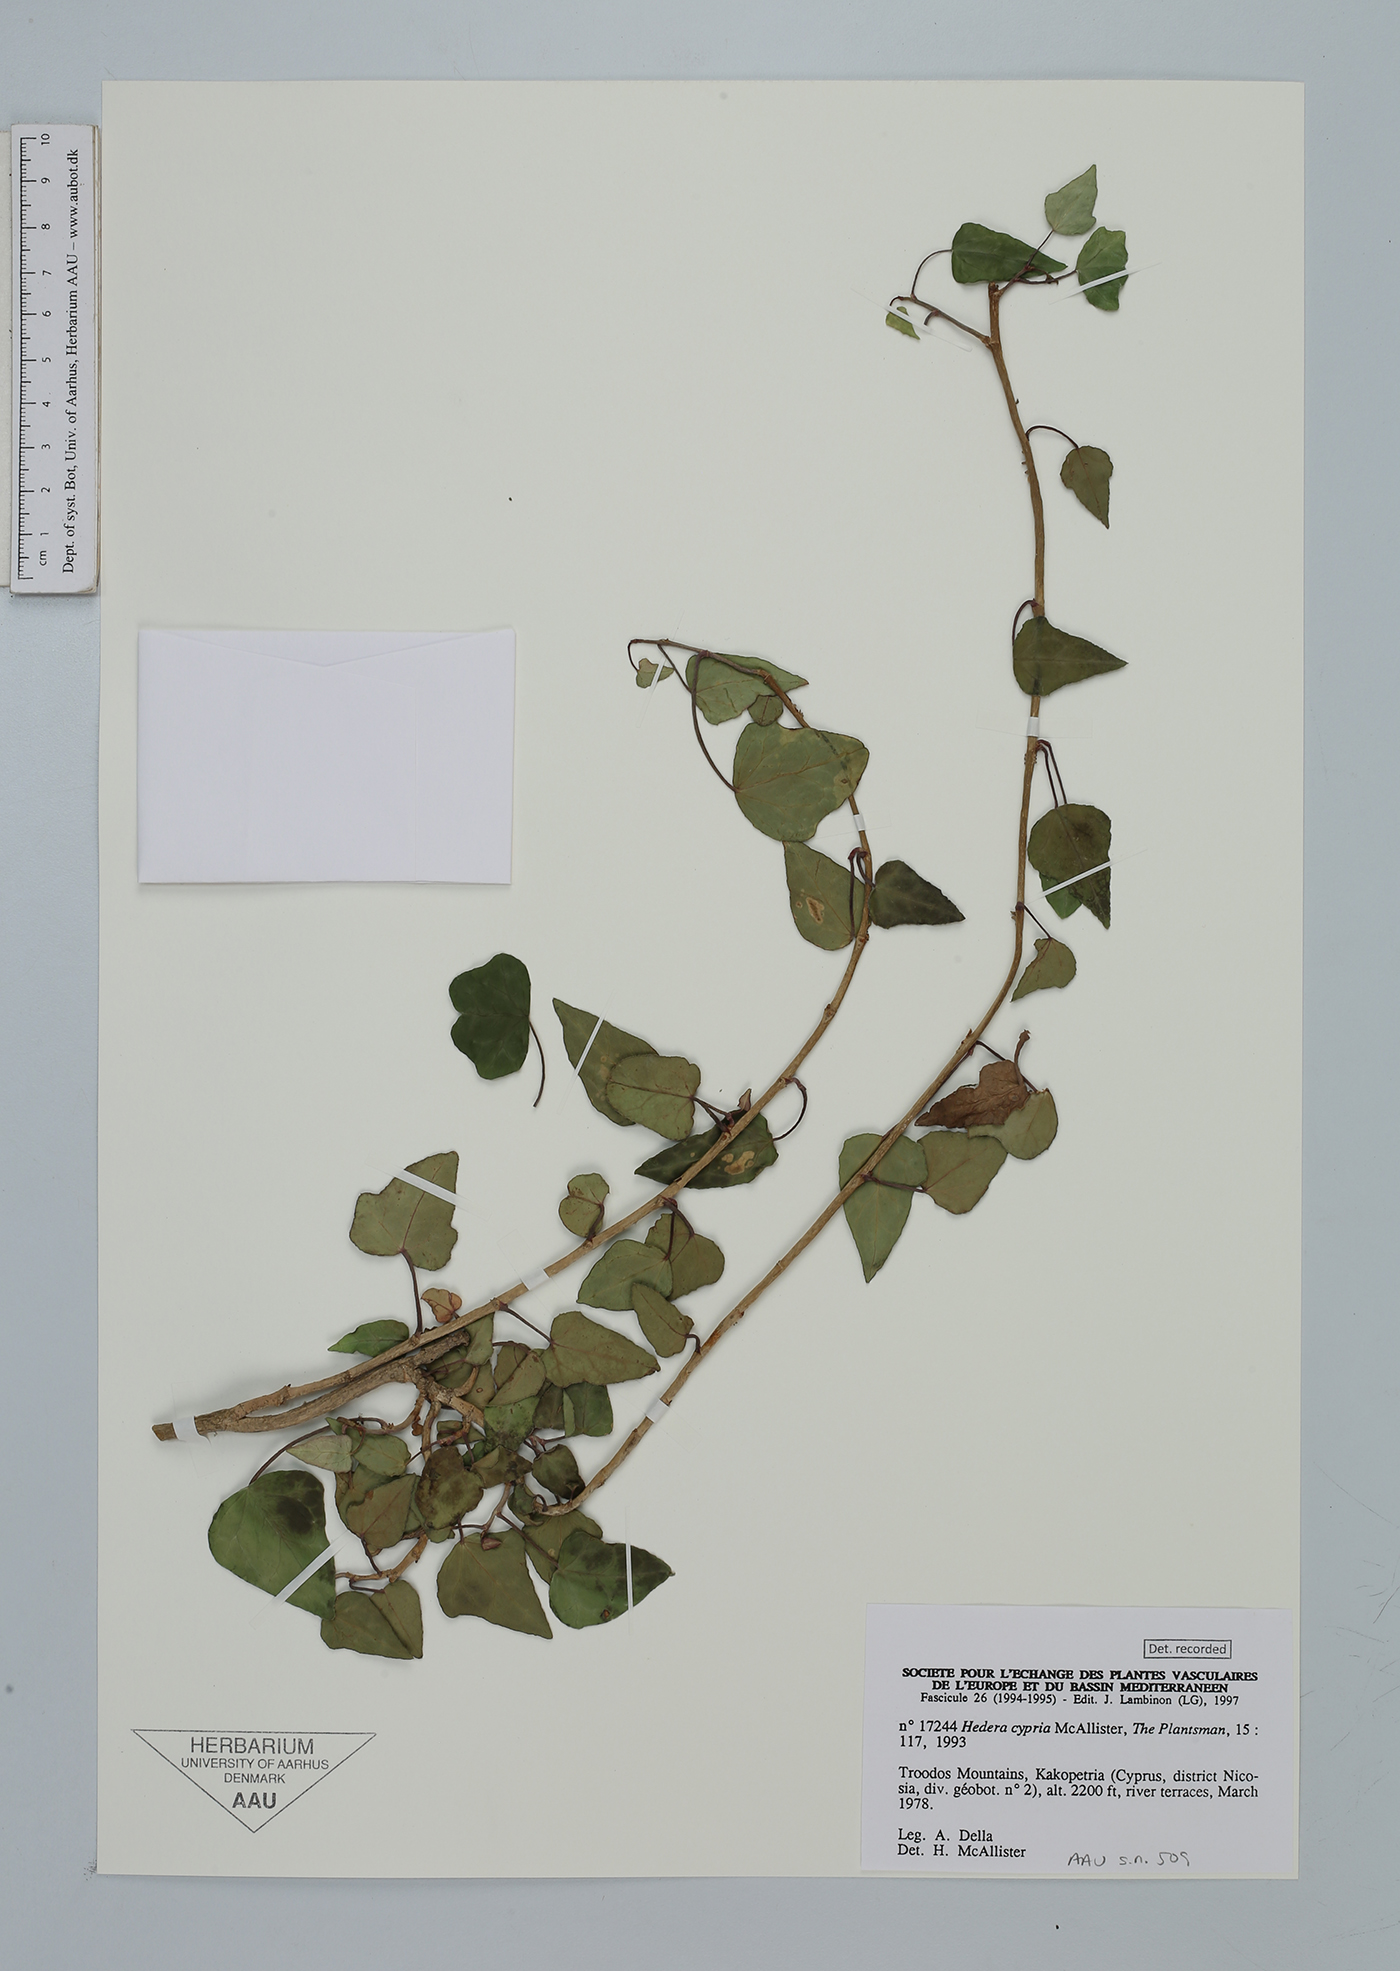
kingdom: Plantae
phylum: Tracheophyta
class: Magnoliopsida
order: Apiales
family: Araliaceae
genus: Hedera
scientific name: Hedera pastuchovii
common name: Persian ivy
